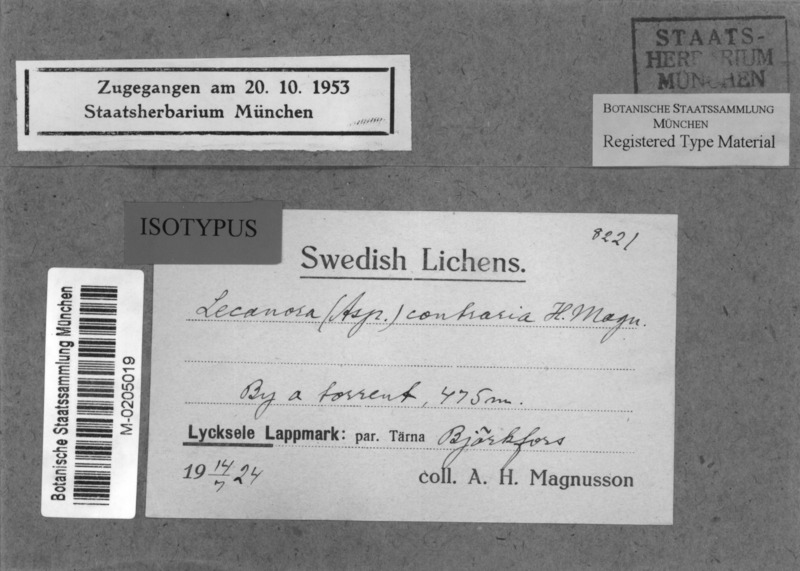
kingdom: Fungi
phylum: Ascomycota
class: Lecanoromycetes
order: Pertusariales
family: Megasporaceae
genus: Aspicilia
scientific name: Aspicilia indissimilis
